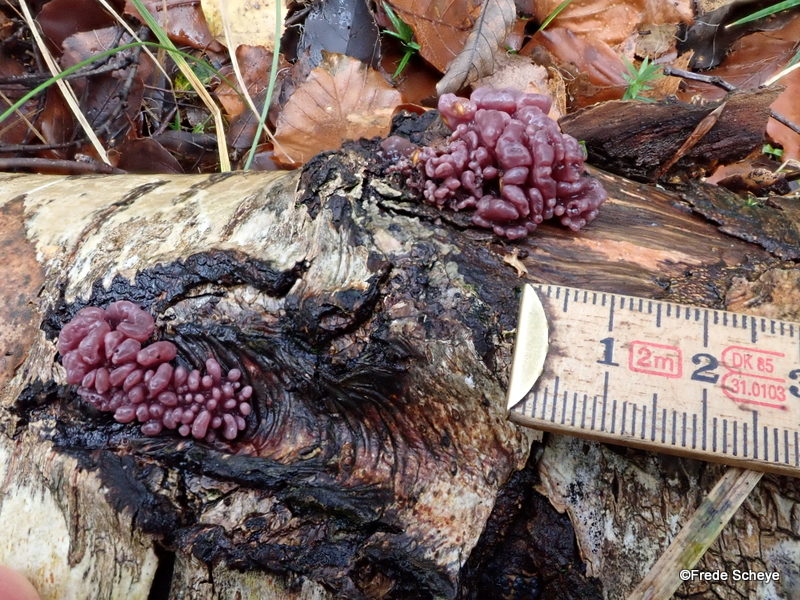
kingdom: Fungi
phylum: Ascomycota
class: Leotiomycetes
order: Helotiales
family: Gelatinodiscaceae
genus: Ascocoryne
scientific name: Ascocoryne sarcoides
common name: rødlilla sejskive
